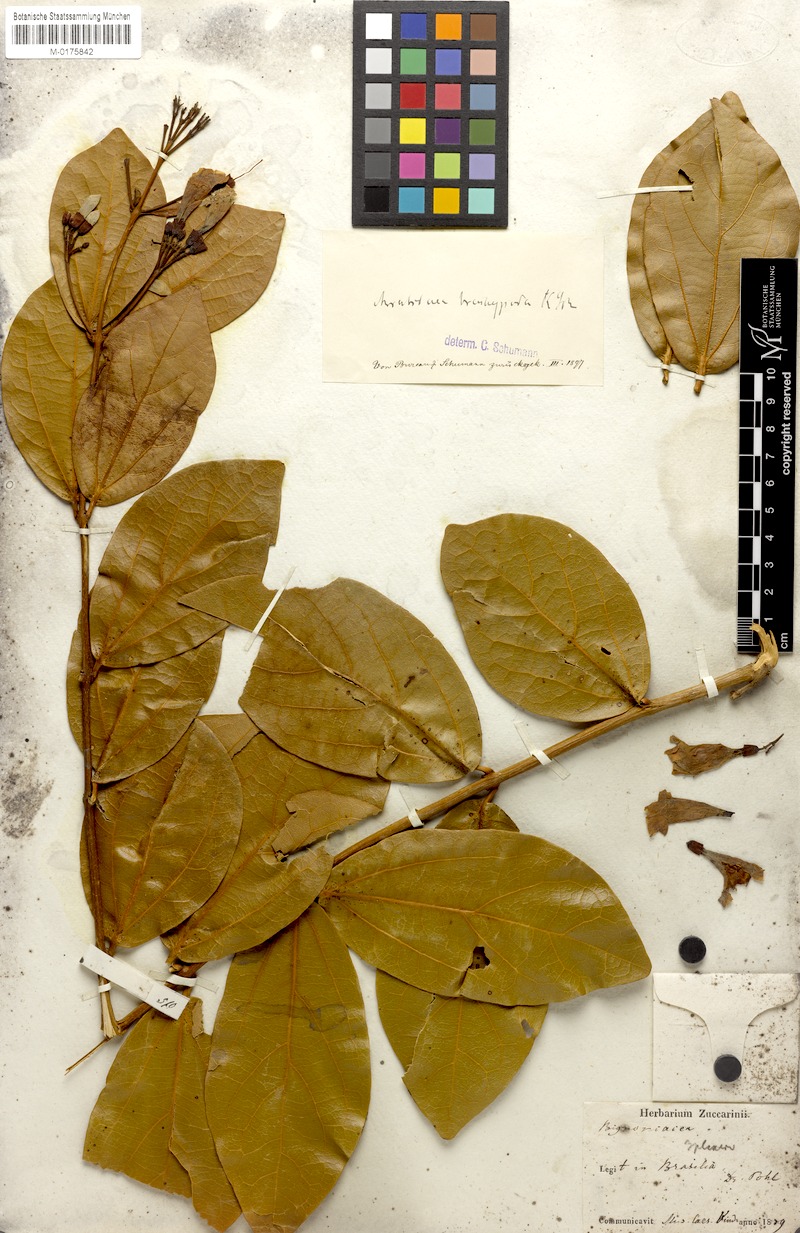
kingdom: Plantae
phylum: Tracheophyta
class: Magnoliopsida
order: Lamiales
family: Bignoniaceae
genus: Fridericia
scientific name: Fridericia platyphylla
